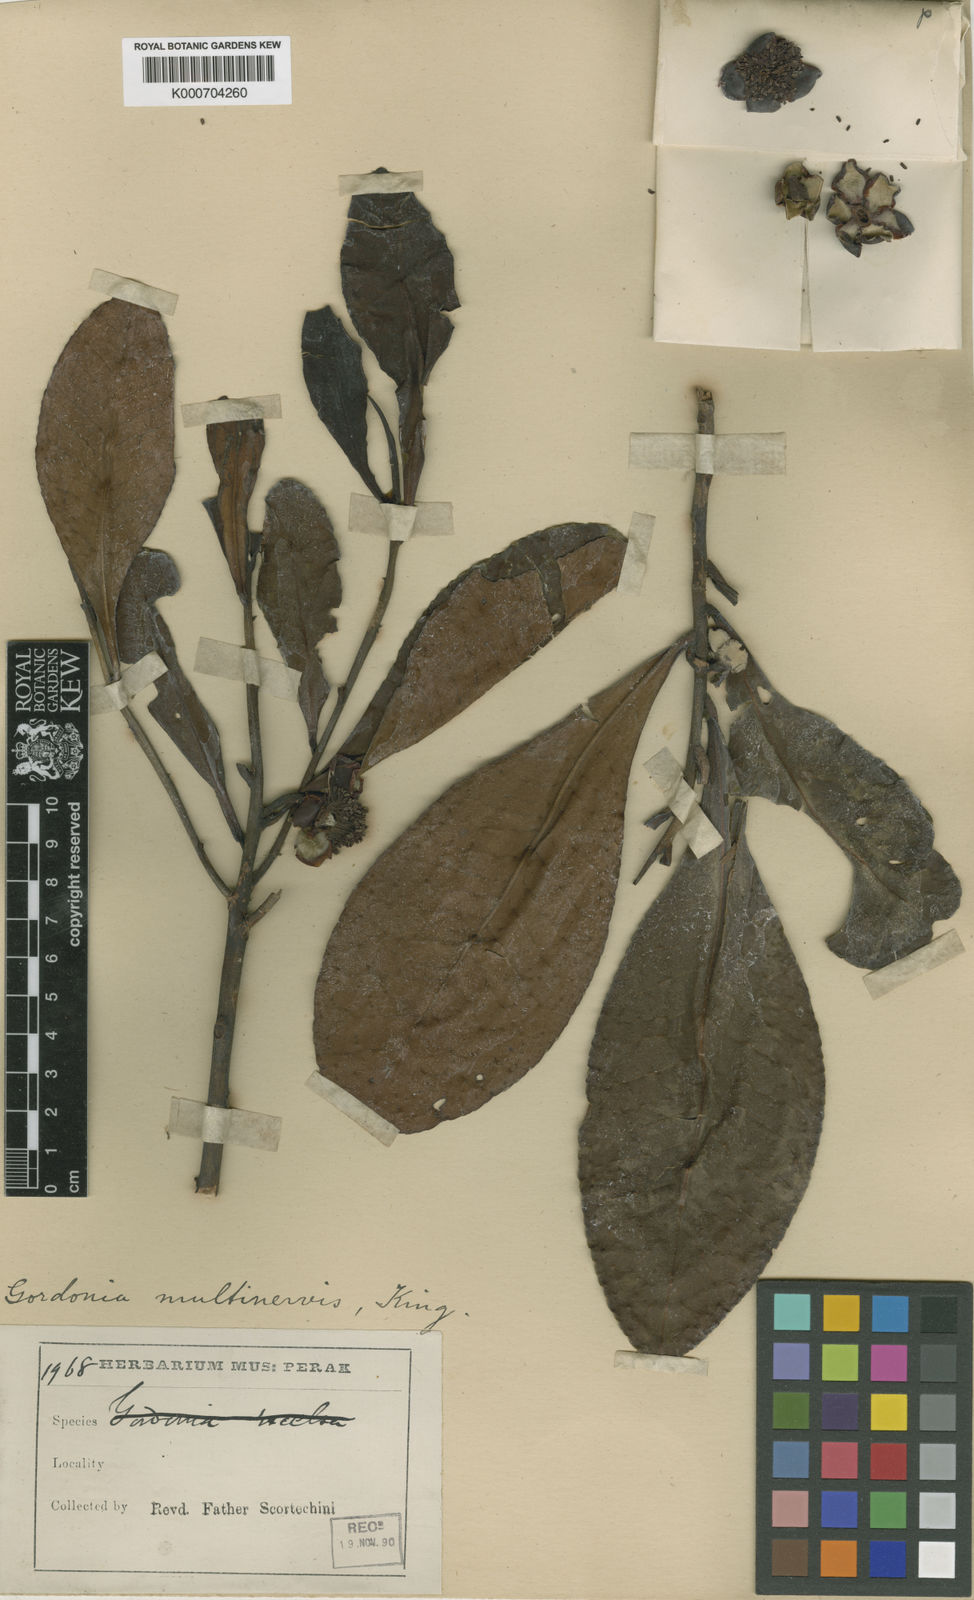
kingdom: Plantae
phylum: Tracheophyta
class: Magnoliopsida
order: Ericales
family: Theaceae
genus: Polyspora
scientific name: Polyspora multinervis
